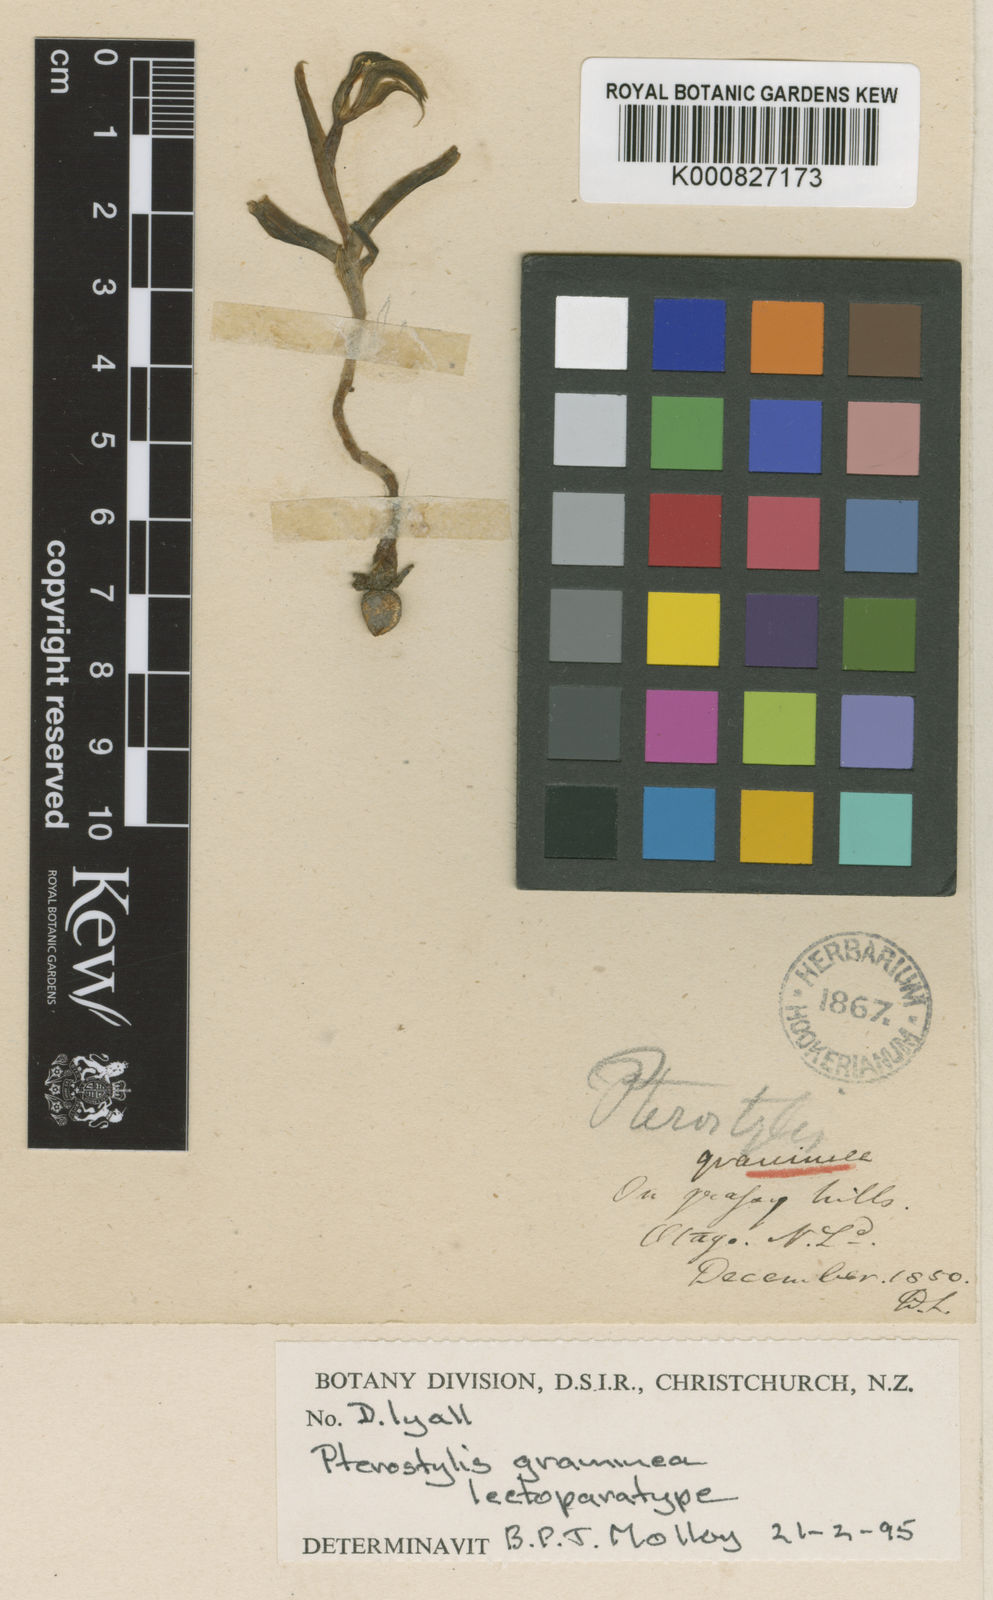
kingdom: Plantae
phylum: Tracheophyta
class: Liliopsida
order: Asparagales
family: Orchidaceae
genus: Pterostylis
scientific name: Pterostylis graminea
